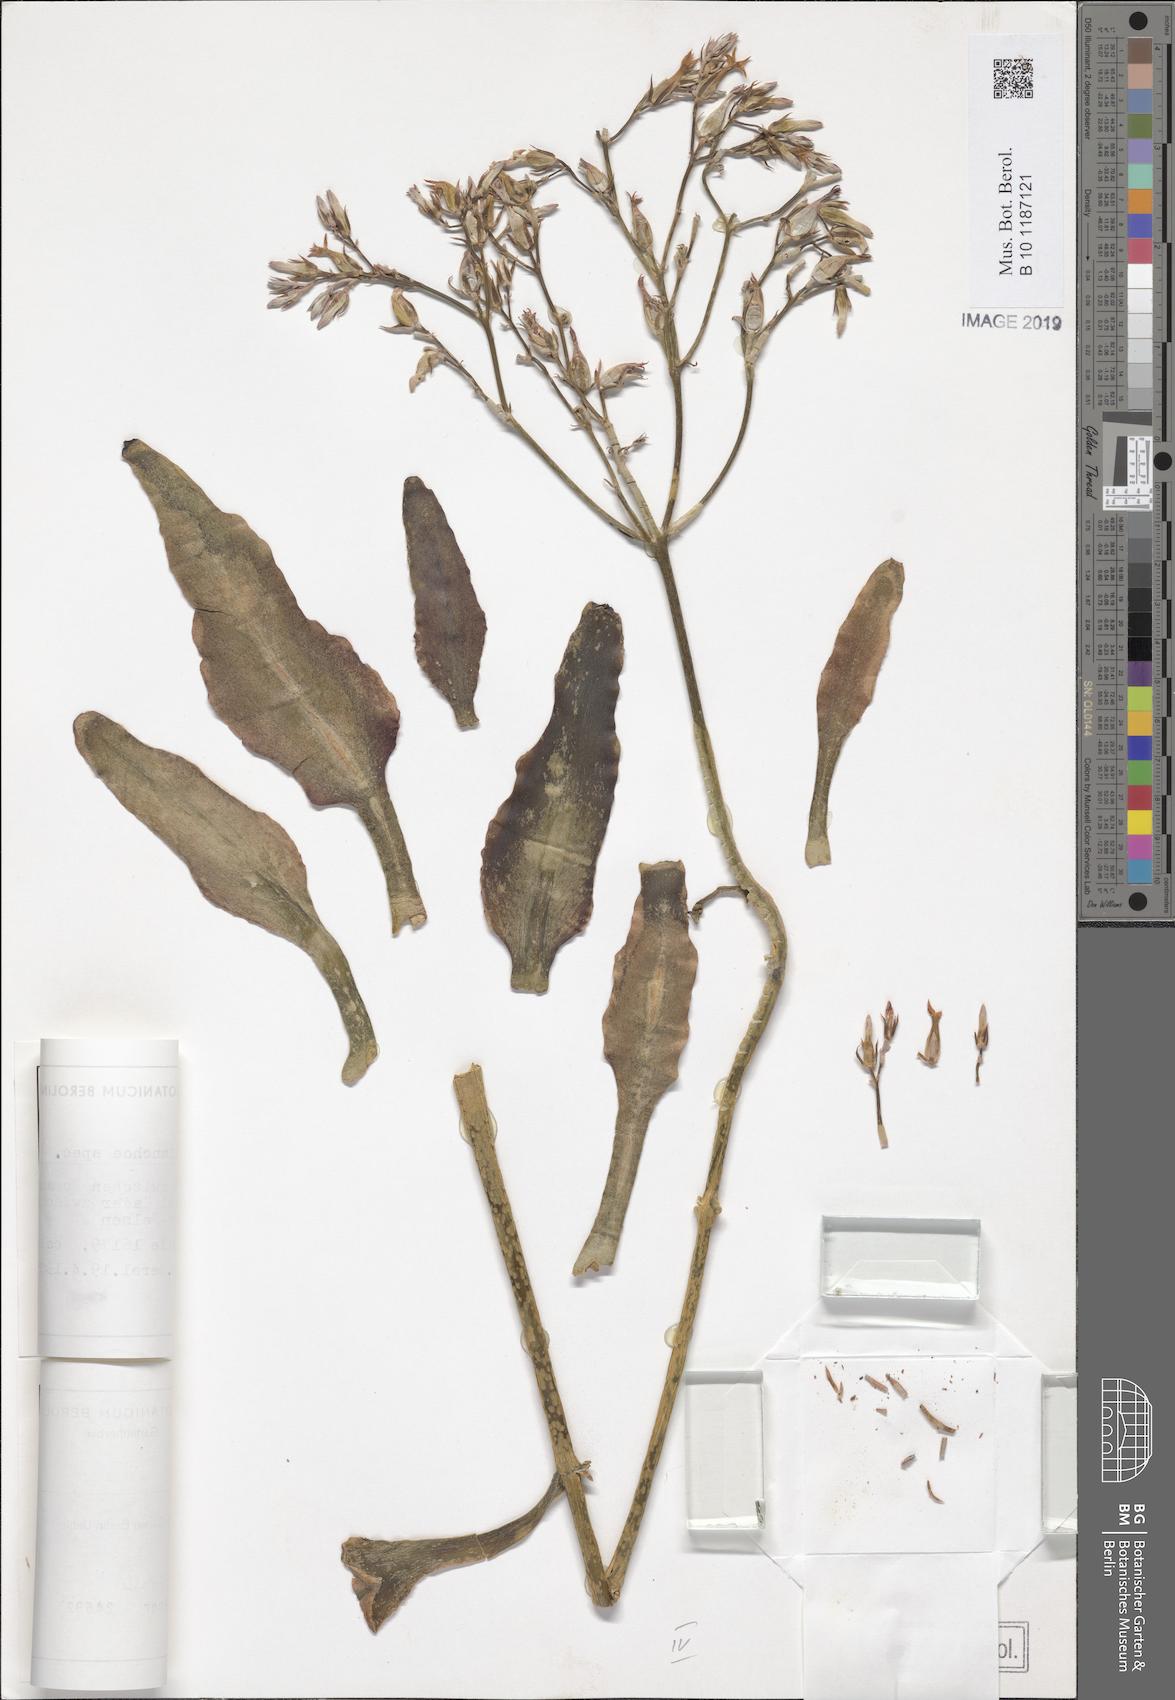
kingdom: Plantae
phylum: Tracheophyta
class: Magnoliopsida
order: Saxifragales
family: Crassulaceae
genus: Kalanchoe
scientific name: Kalanchoe
